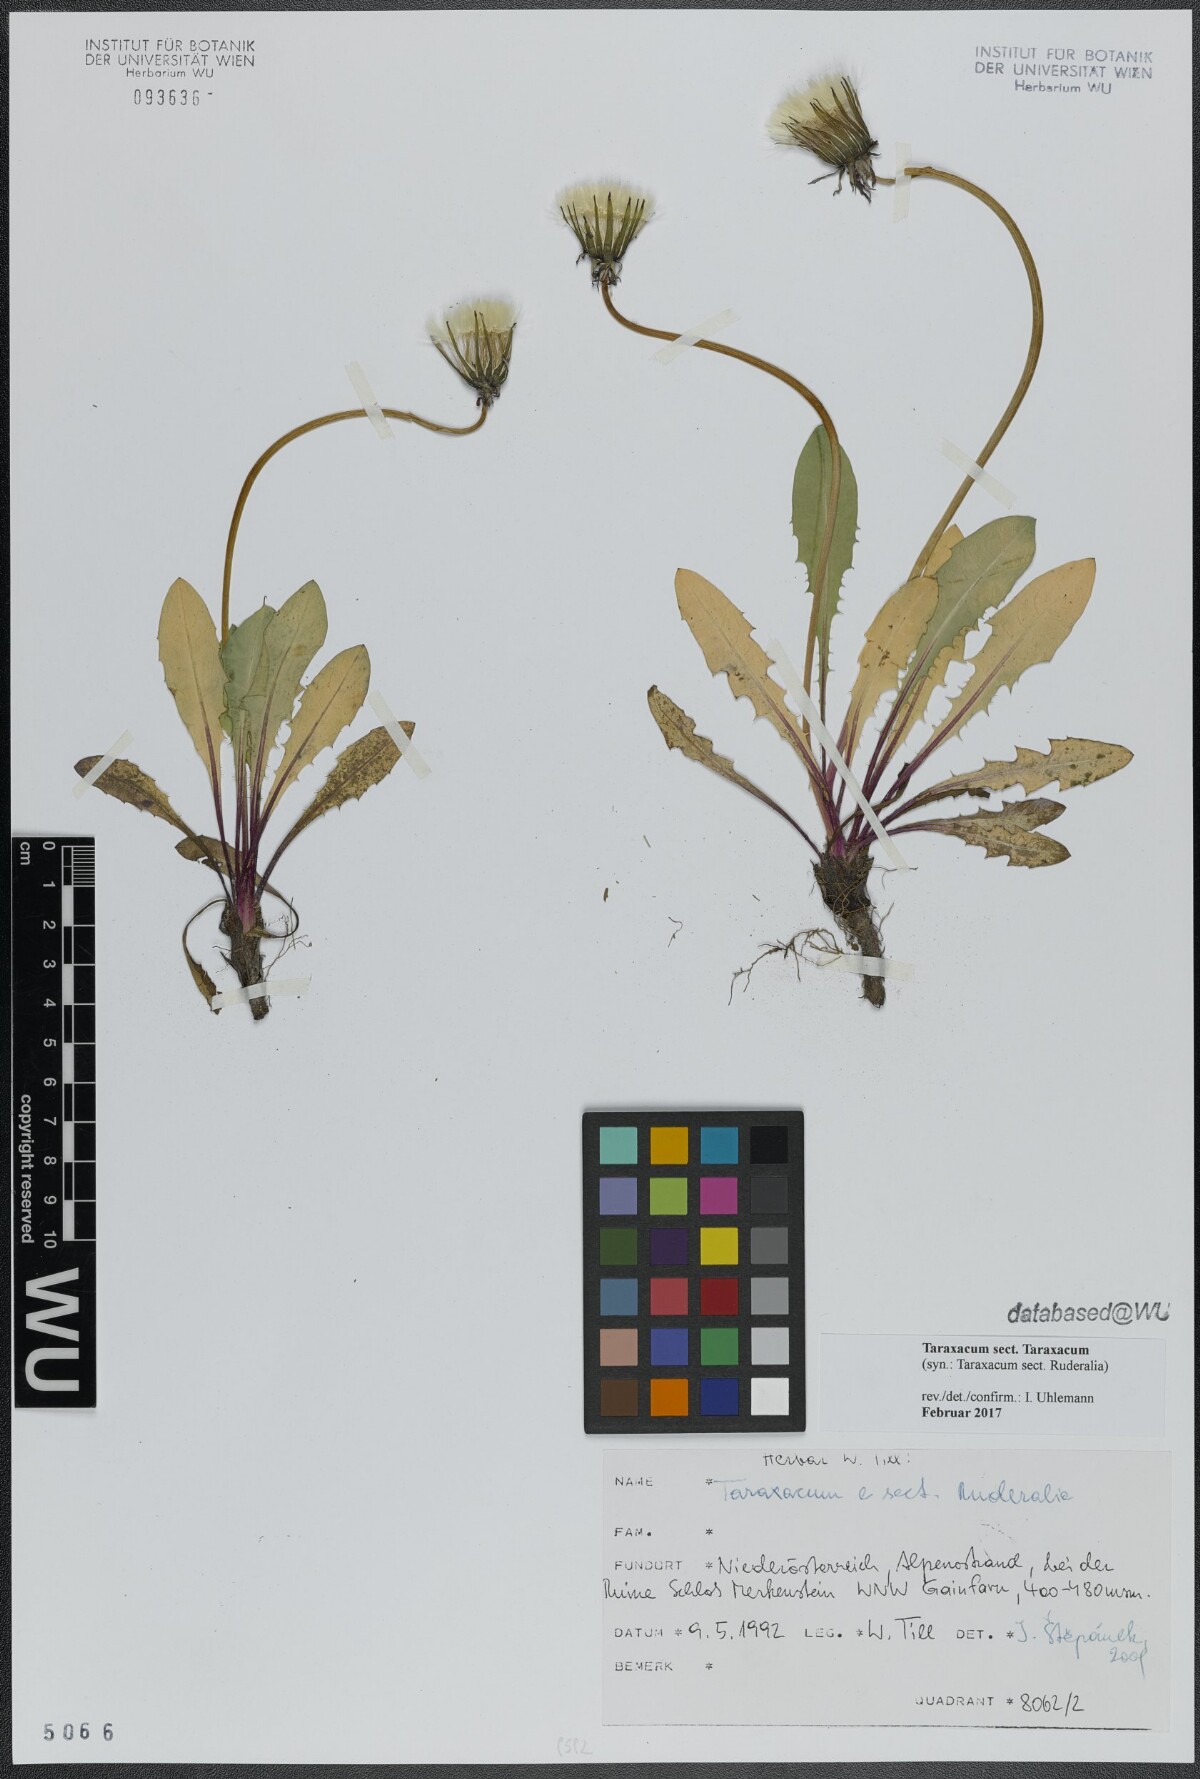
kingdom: Plantae
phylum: Tracheophyta
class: Magnoliopsida
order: Asterales
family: Asteraceae
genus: Taraxacum
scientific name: Taraxacum
